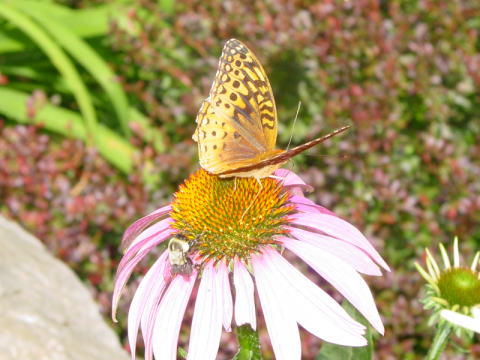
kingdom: Animalia
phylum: Arthropoda
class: Insecta
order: Lepidoptera
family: Nymphalidae
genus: Speyeria
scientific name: Speyeria cybele
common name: Great Spangled Fritillary
